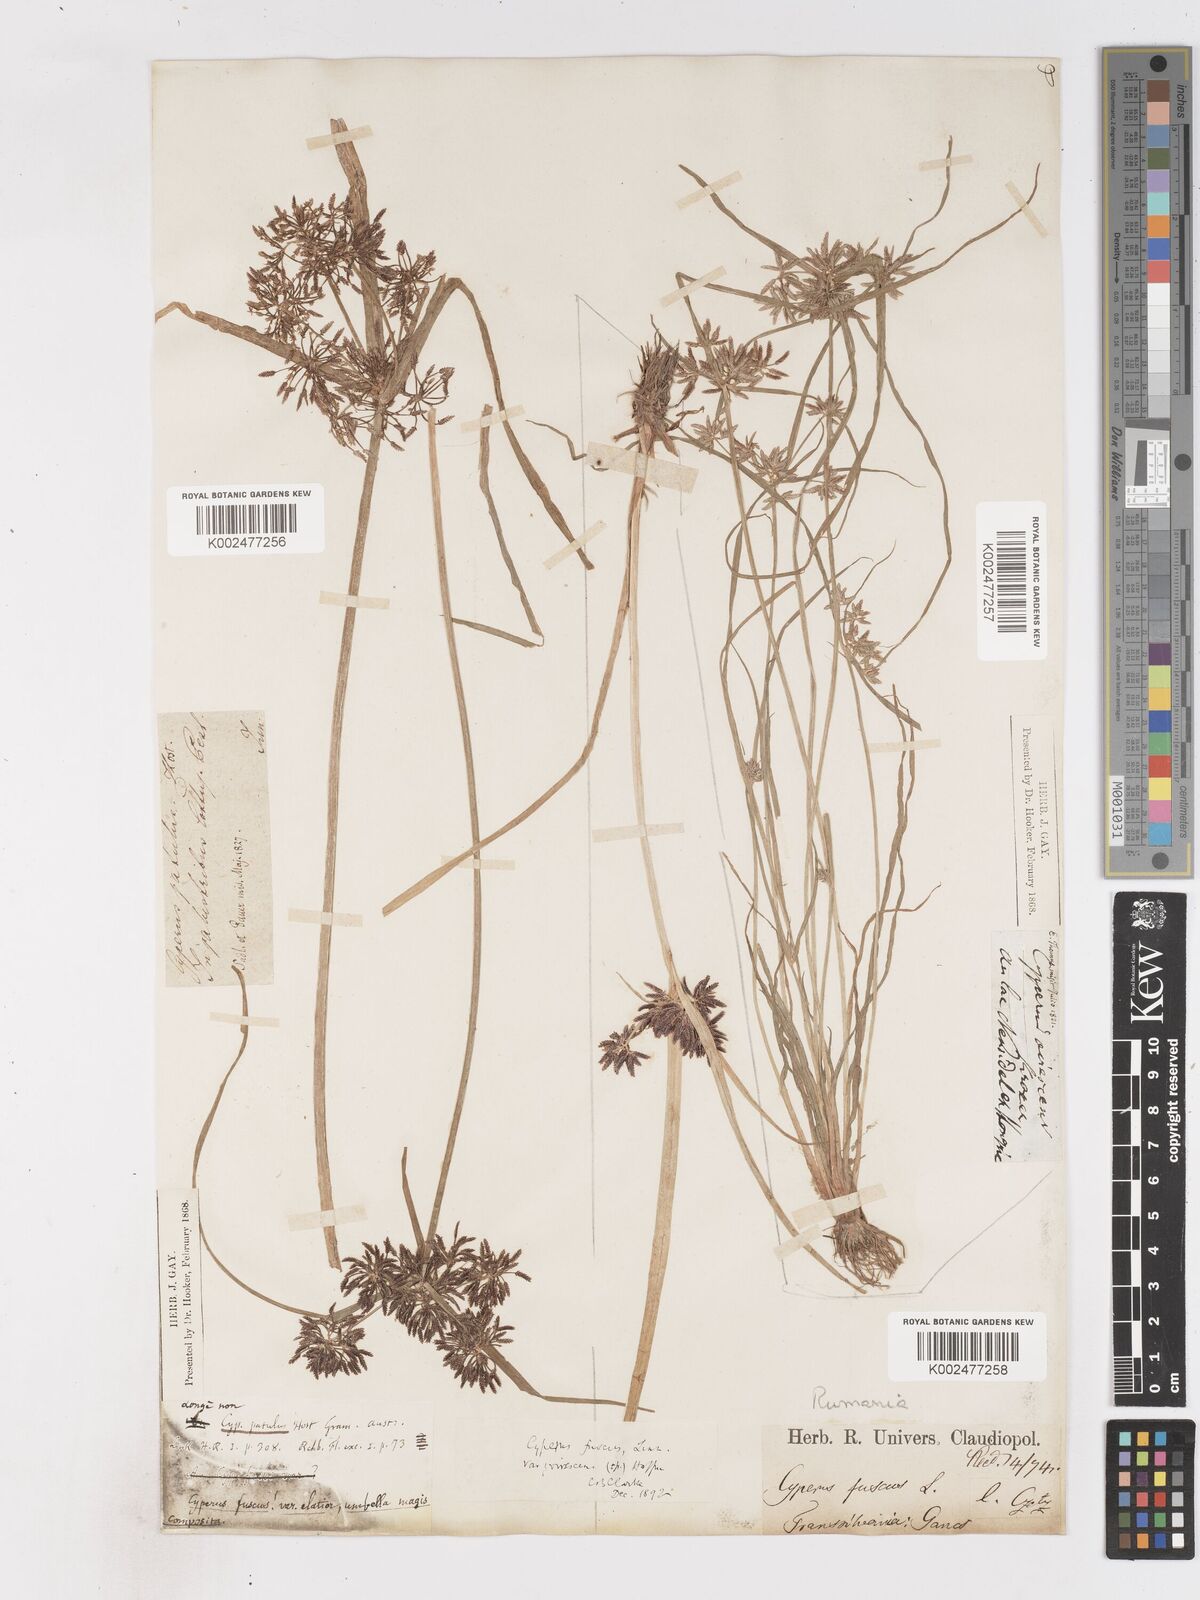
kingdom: Plantae
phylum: Tracheophyta
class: Liliopsida
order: Poales
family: Cyperaceae
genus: Cyperus
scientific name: Cyperus fuscus
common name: Brown galingale
